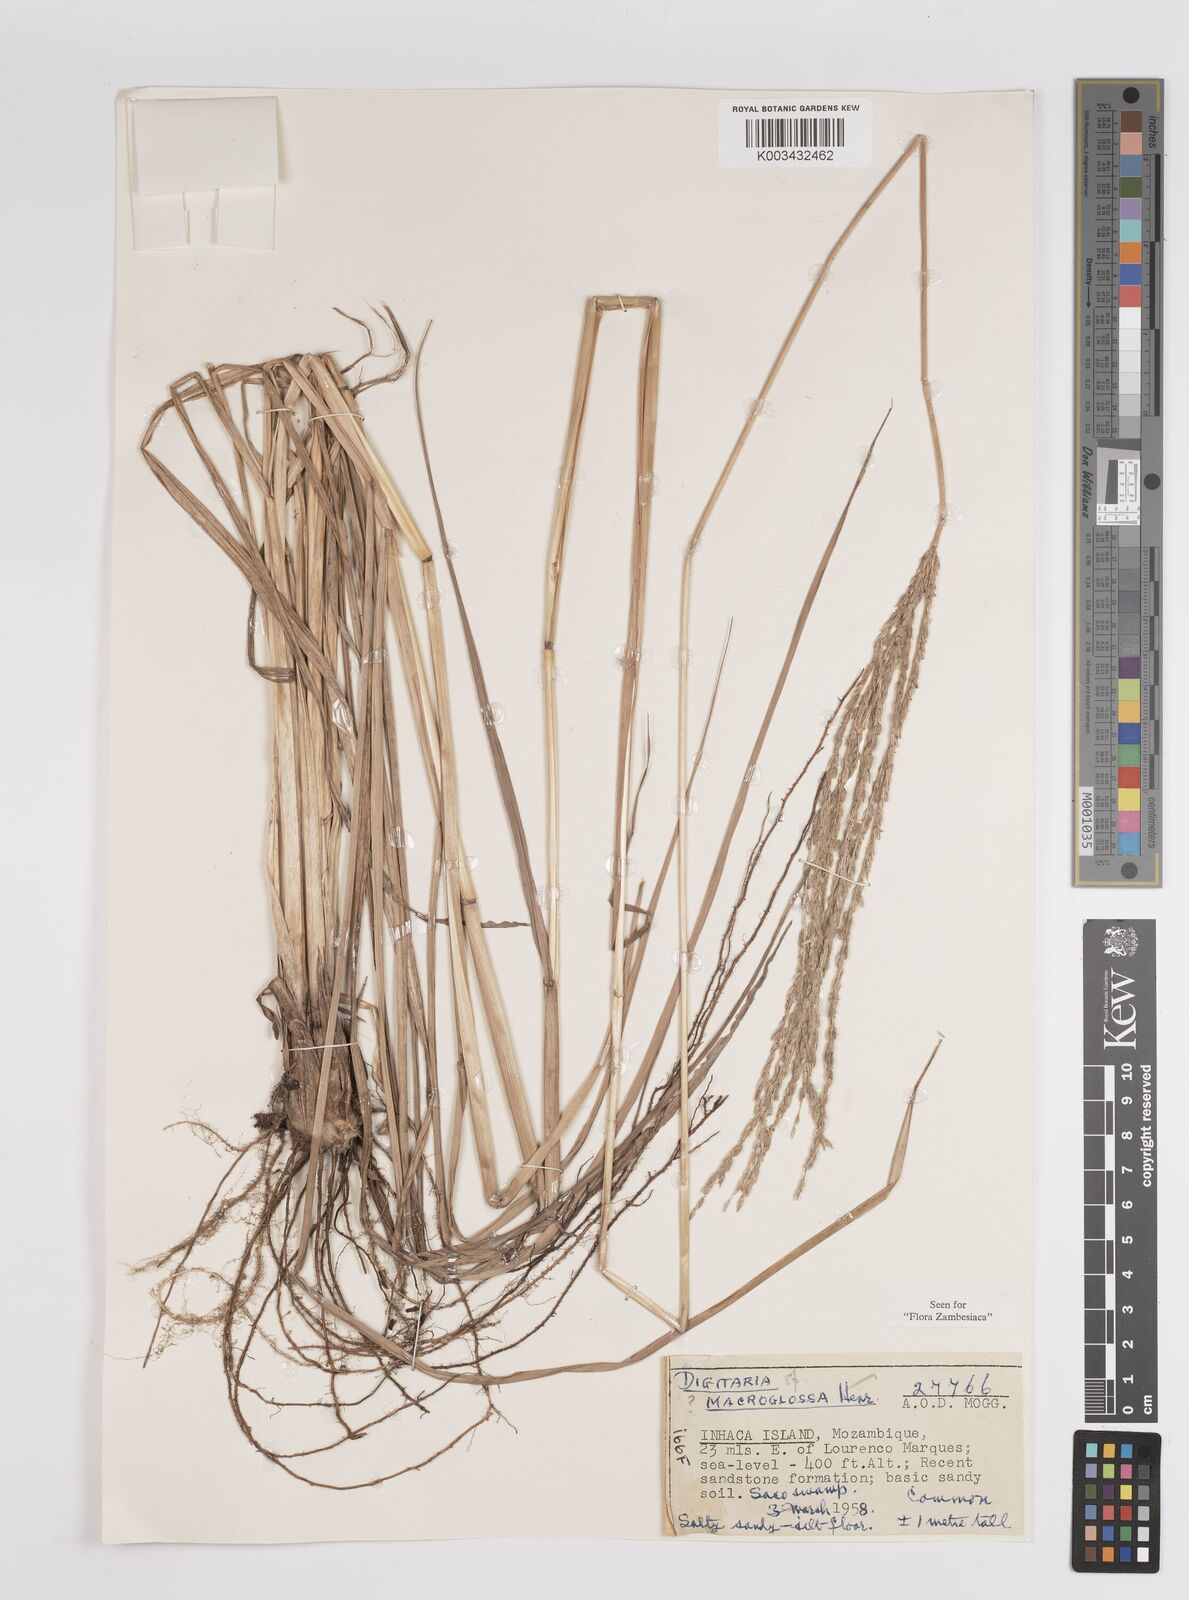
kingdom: Plantae
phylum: Tracheophyta
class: Liliopsida
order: Poales
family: Poaceae
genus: Digitaria
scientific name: Digitaria natalensis
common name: Coast finger grass
